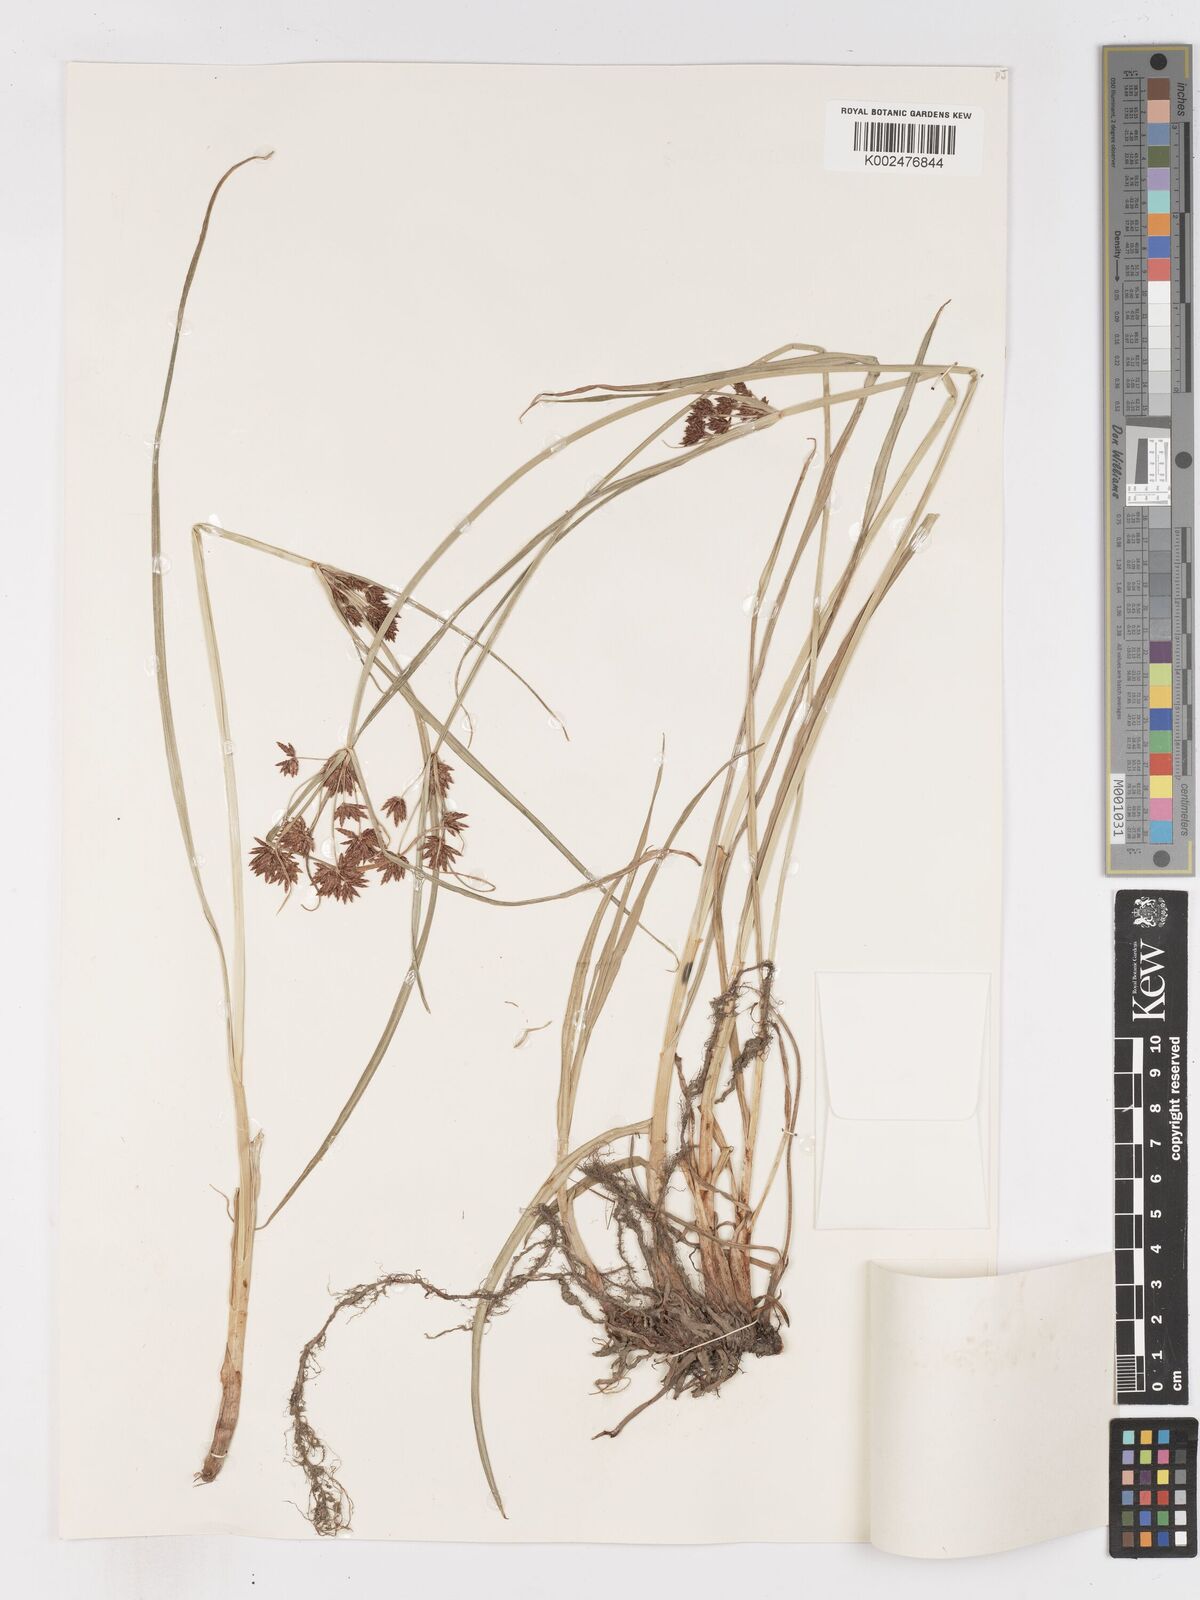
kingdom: Plantae
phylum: Tracheophyta
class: Liliopsida
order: Poales
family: Cyperaceae
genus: Cyperus
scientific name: Cyperus longus
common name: Galingale
